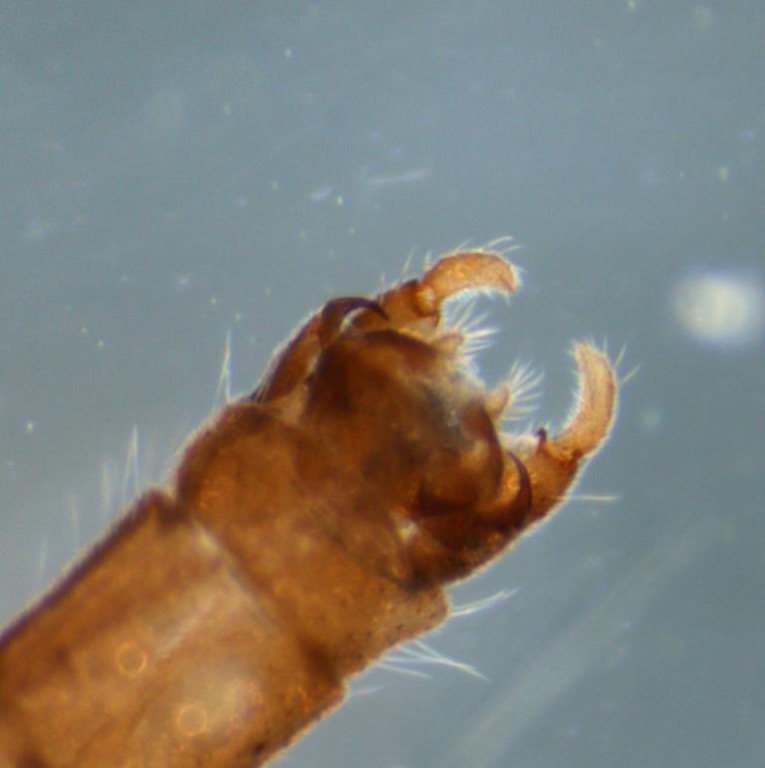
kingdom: Animalia
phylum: Arthropoda
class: Insecta
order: Diptera
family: Dixidae
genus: Peytonulus
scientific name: Peytonulus Dixa maculata
